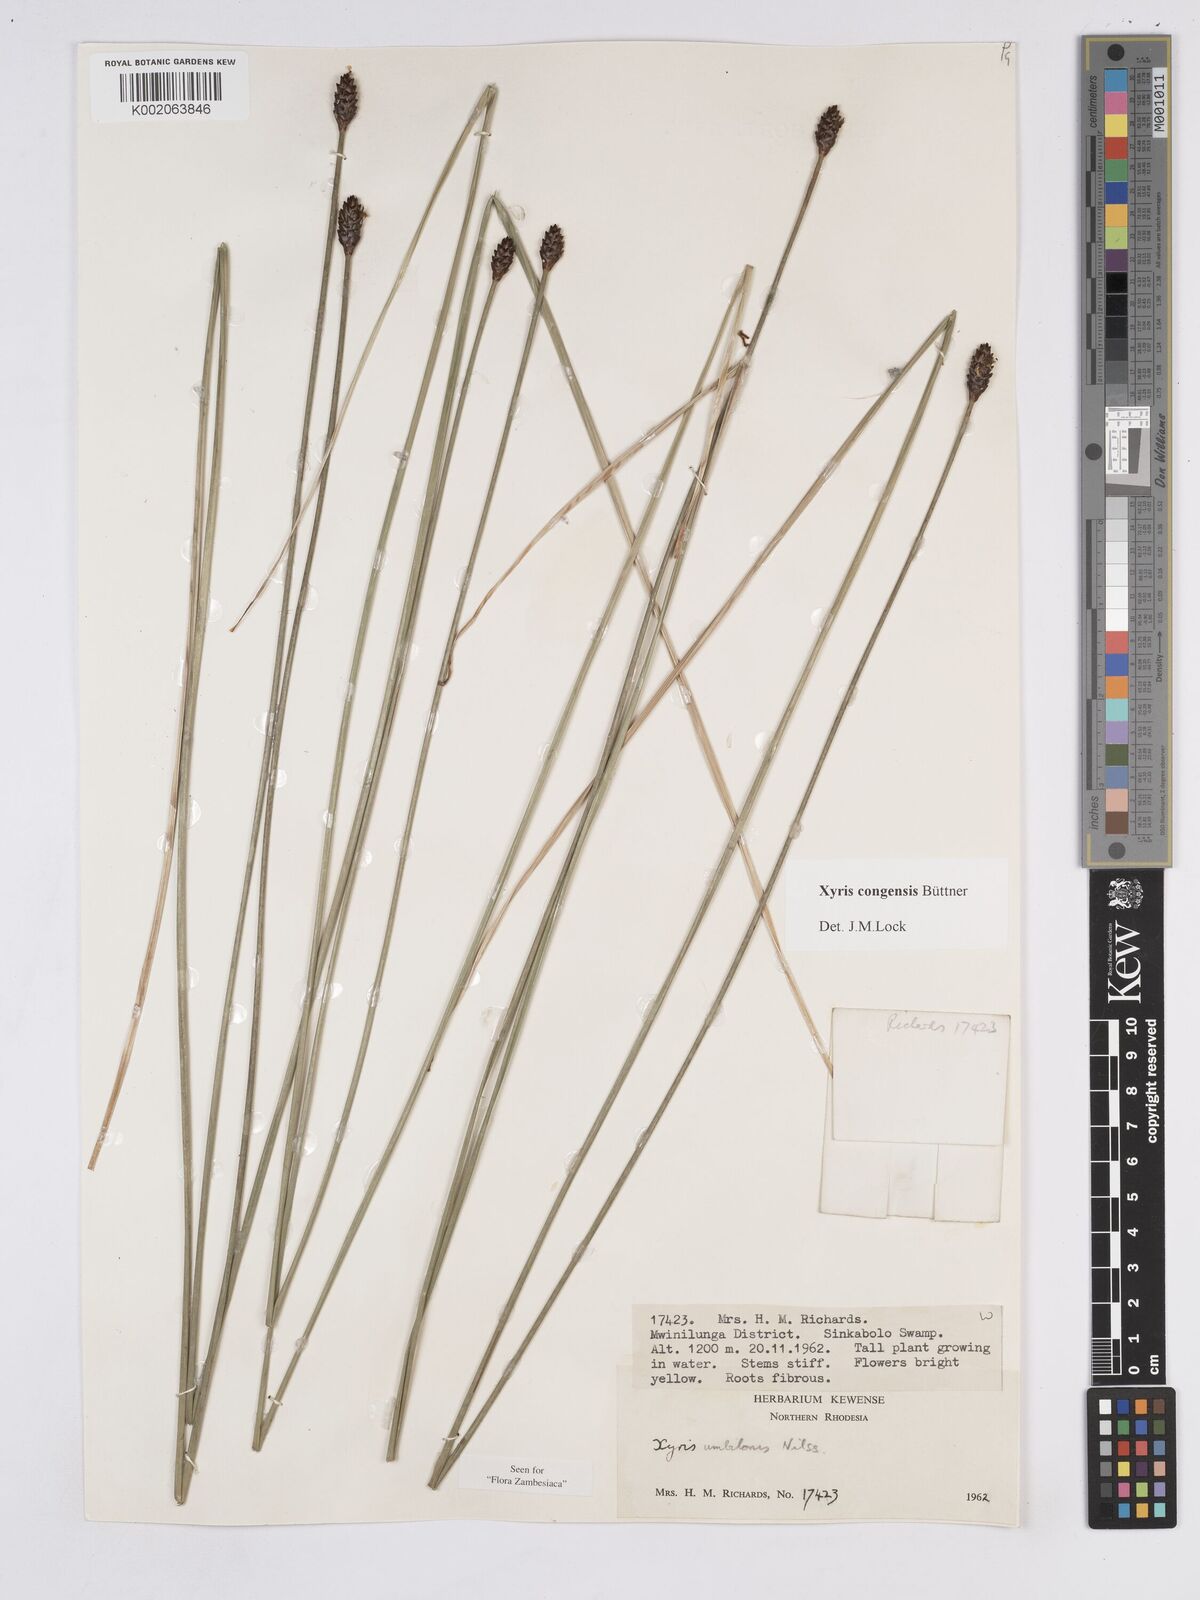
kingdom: Plantae
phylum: Tracheophyta
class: Liliopsida
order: Poales
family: Xyridaceae
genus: Xyris
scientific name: Xyris congensis
